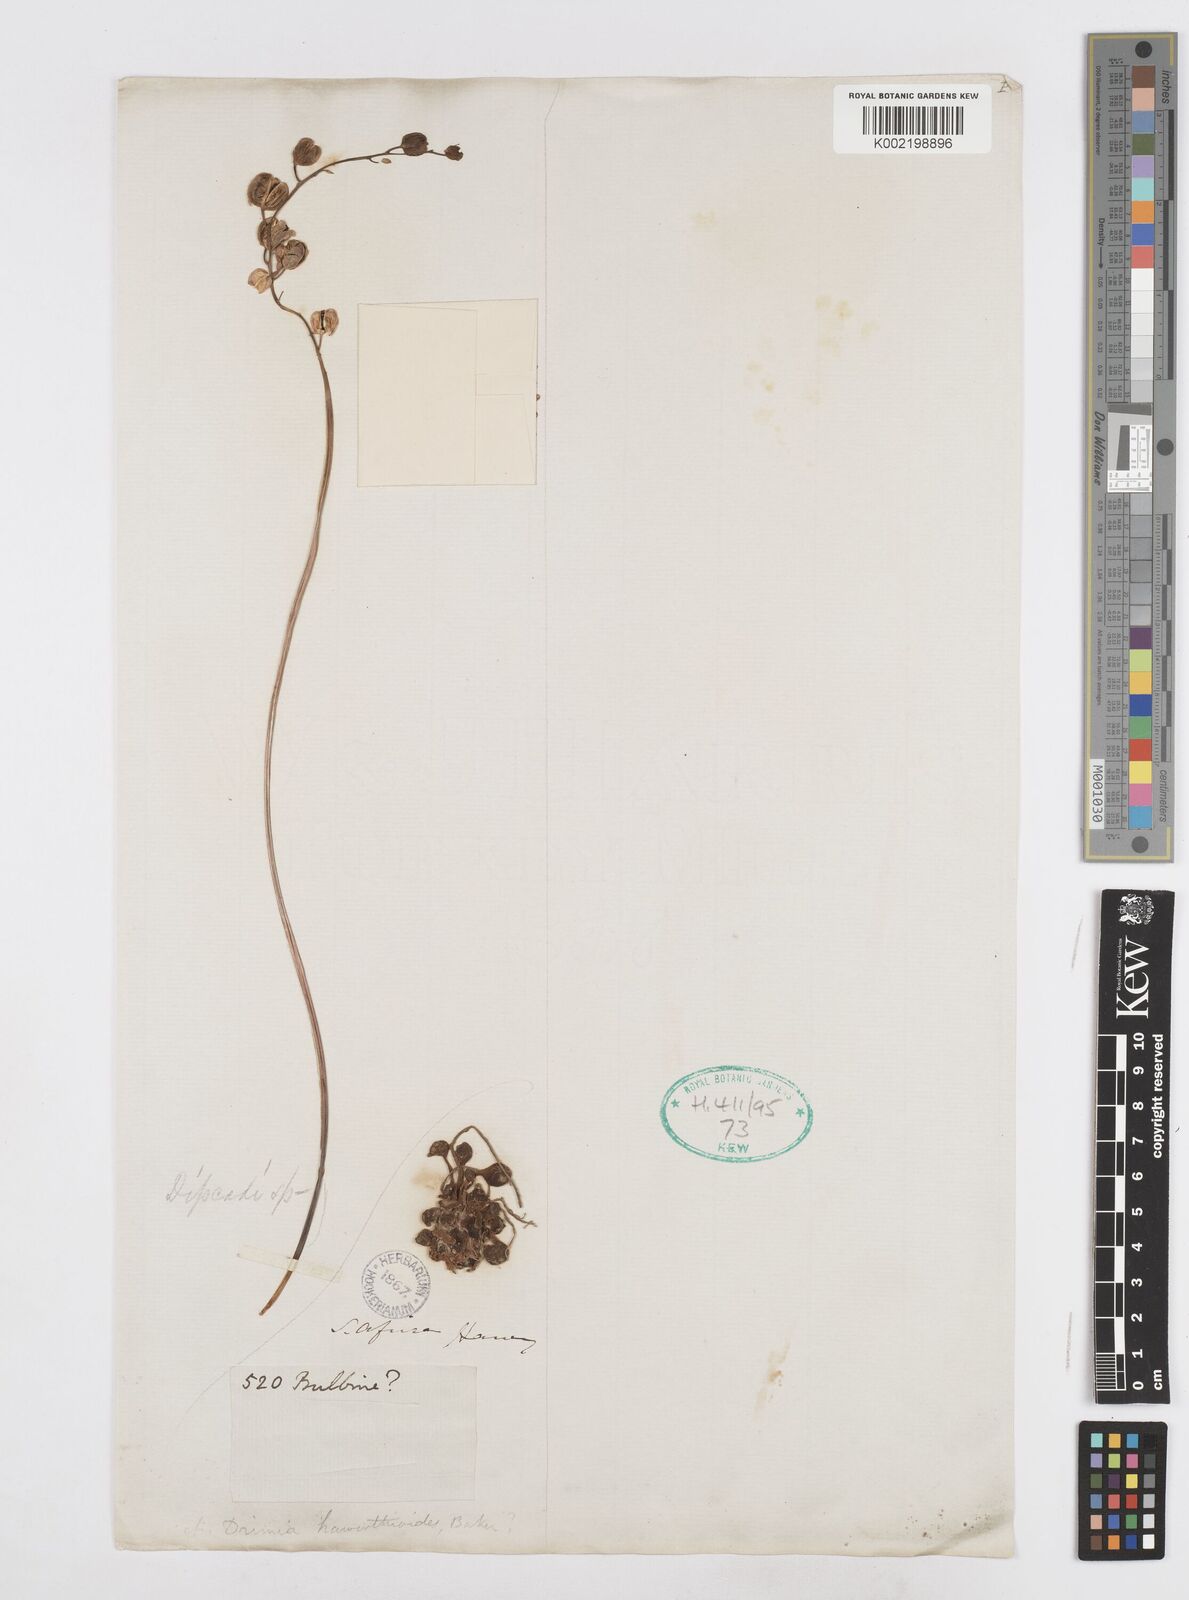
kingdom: Plantae
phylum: Tracheophyta
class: Liliopsida
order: Asparagales
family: Asparagaceae
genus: Drimia
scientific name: Drimia haworthioides
